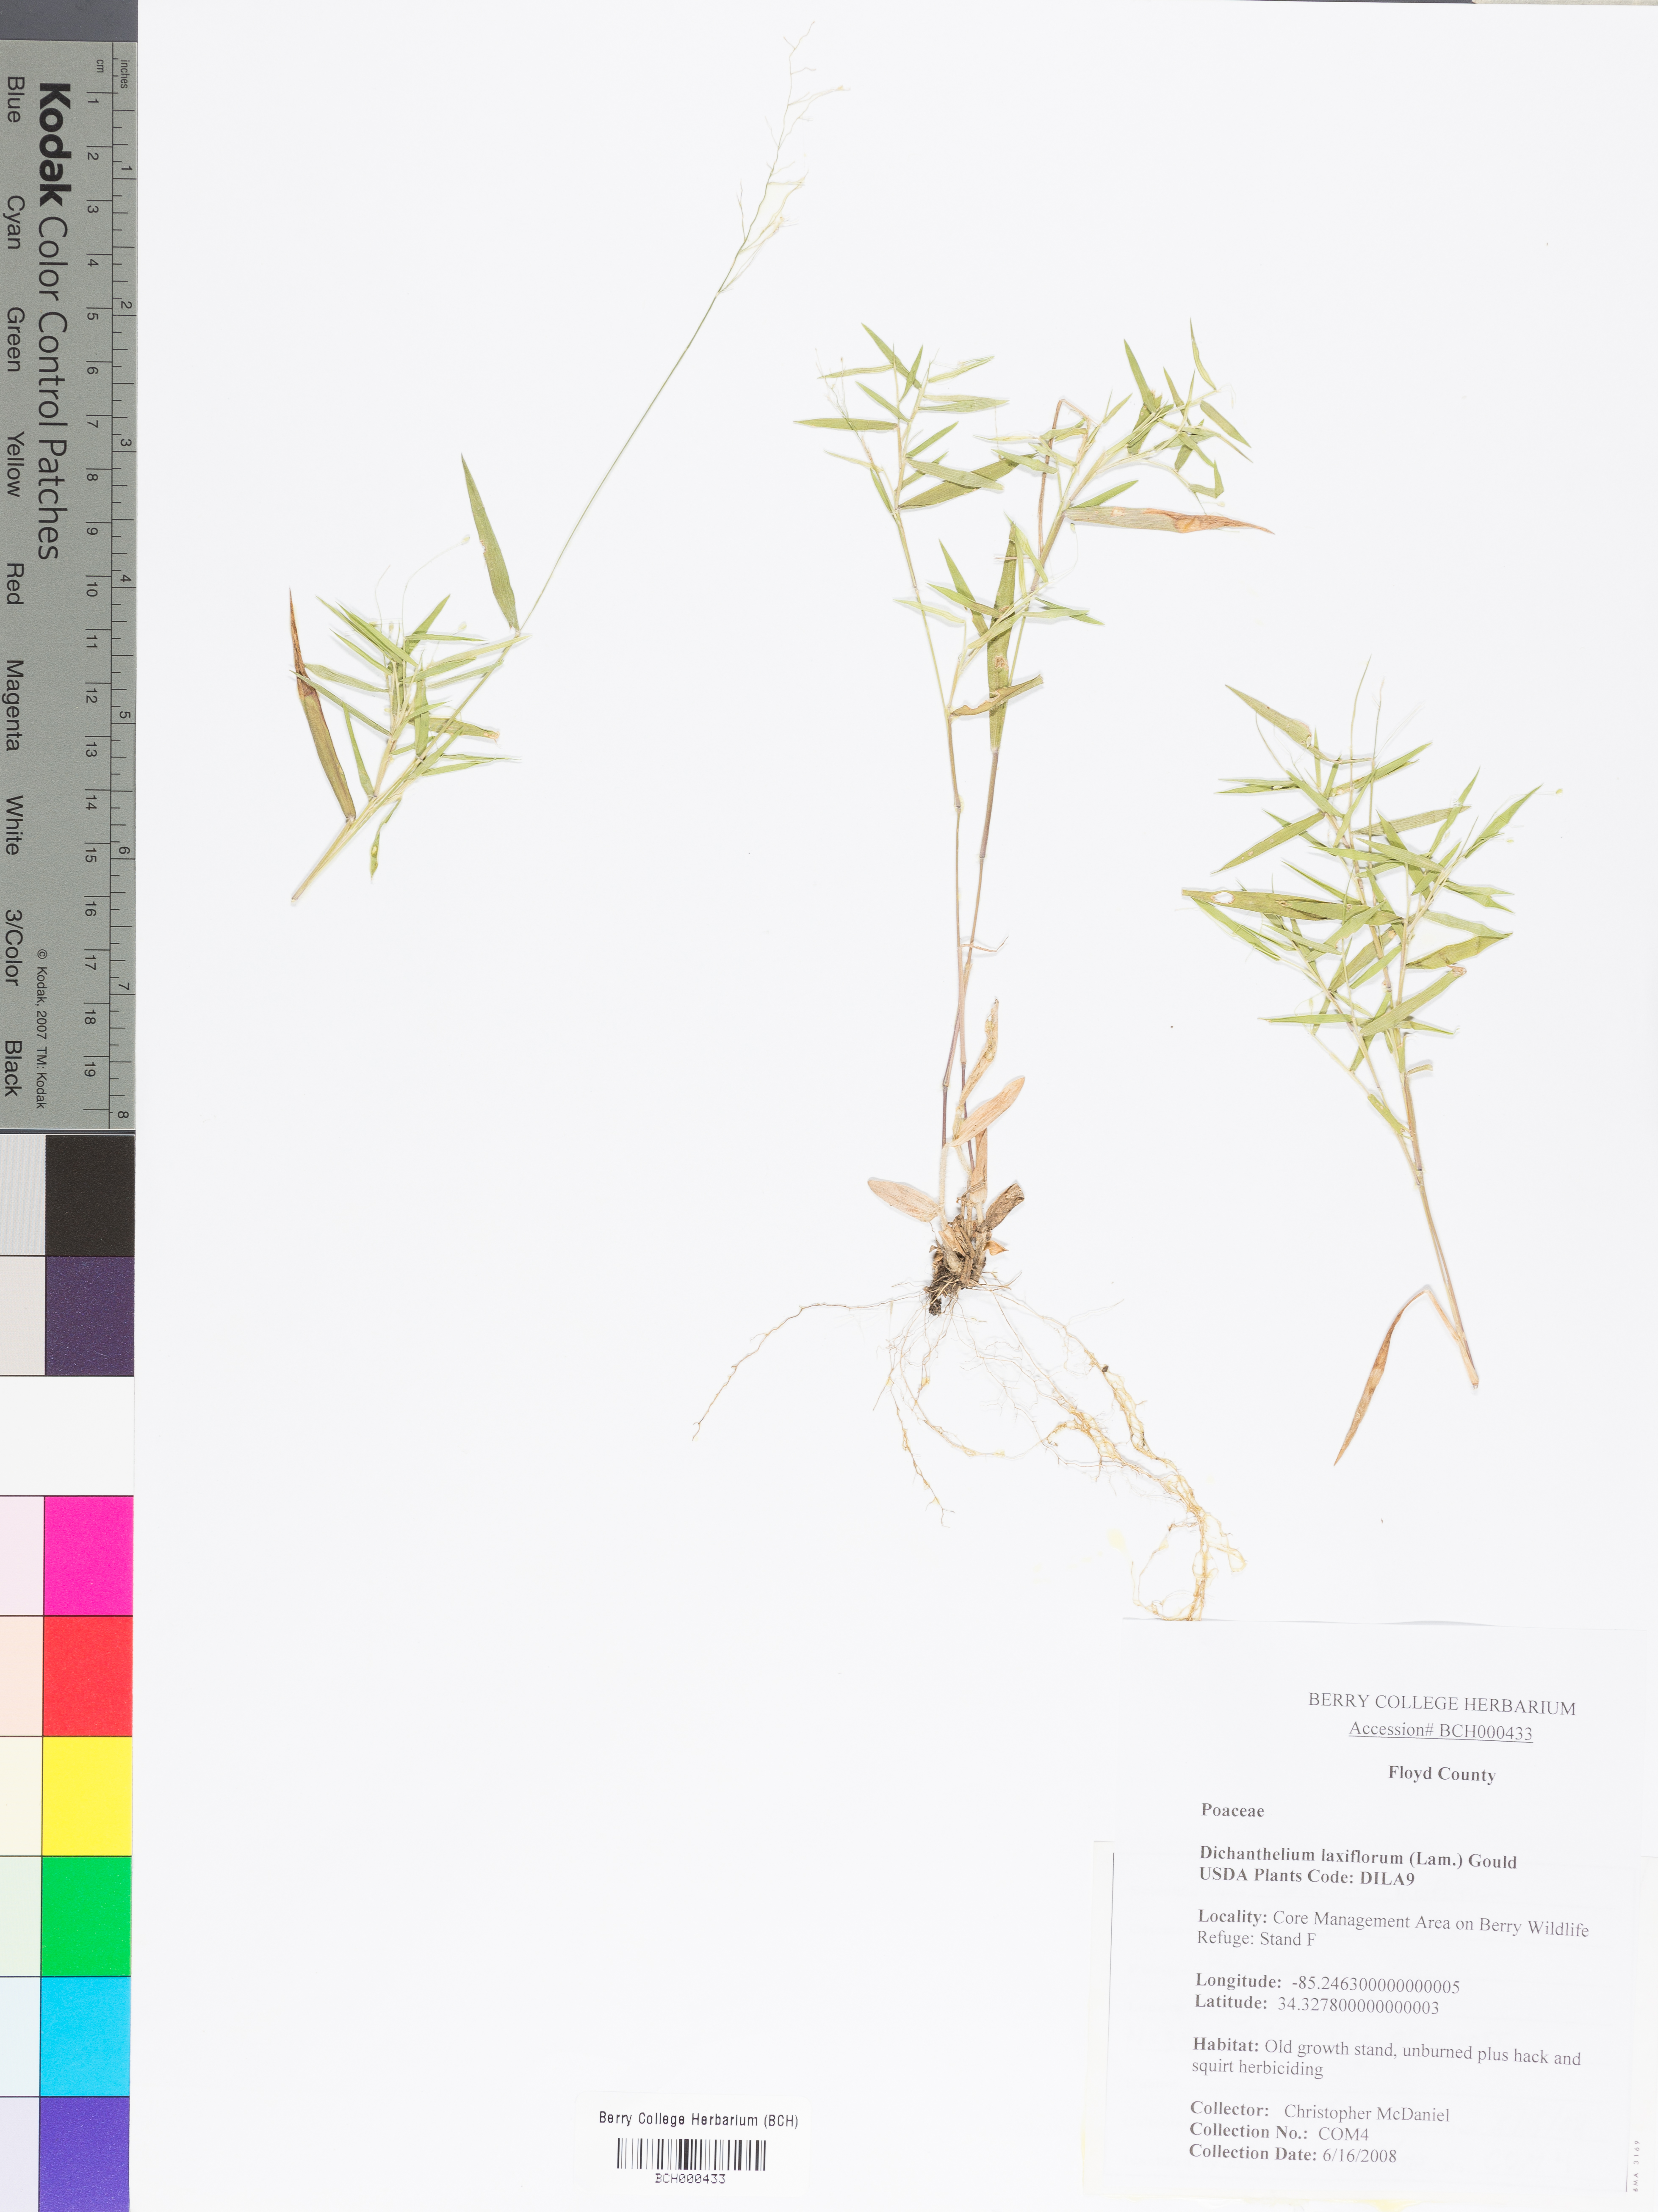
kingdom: Plantae
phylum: Tracheophyta
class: Liliopsida
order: Poales
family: Poaceae
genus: Dichanthelium
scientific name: Dichanthelium laxiflorum
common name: Soft-tuft panic grass
